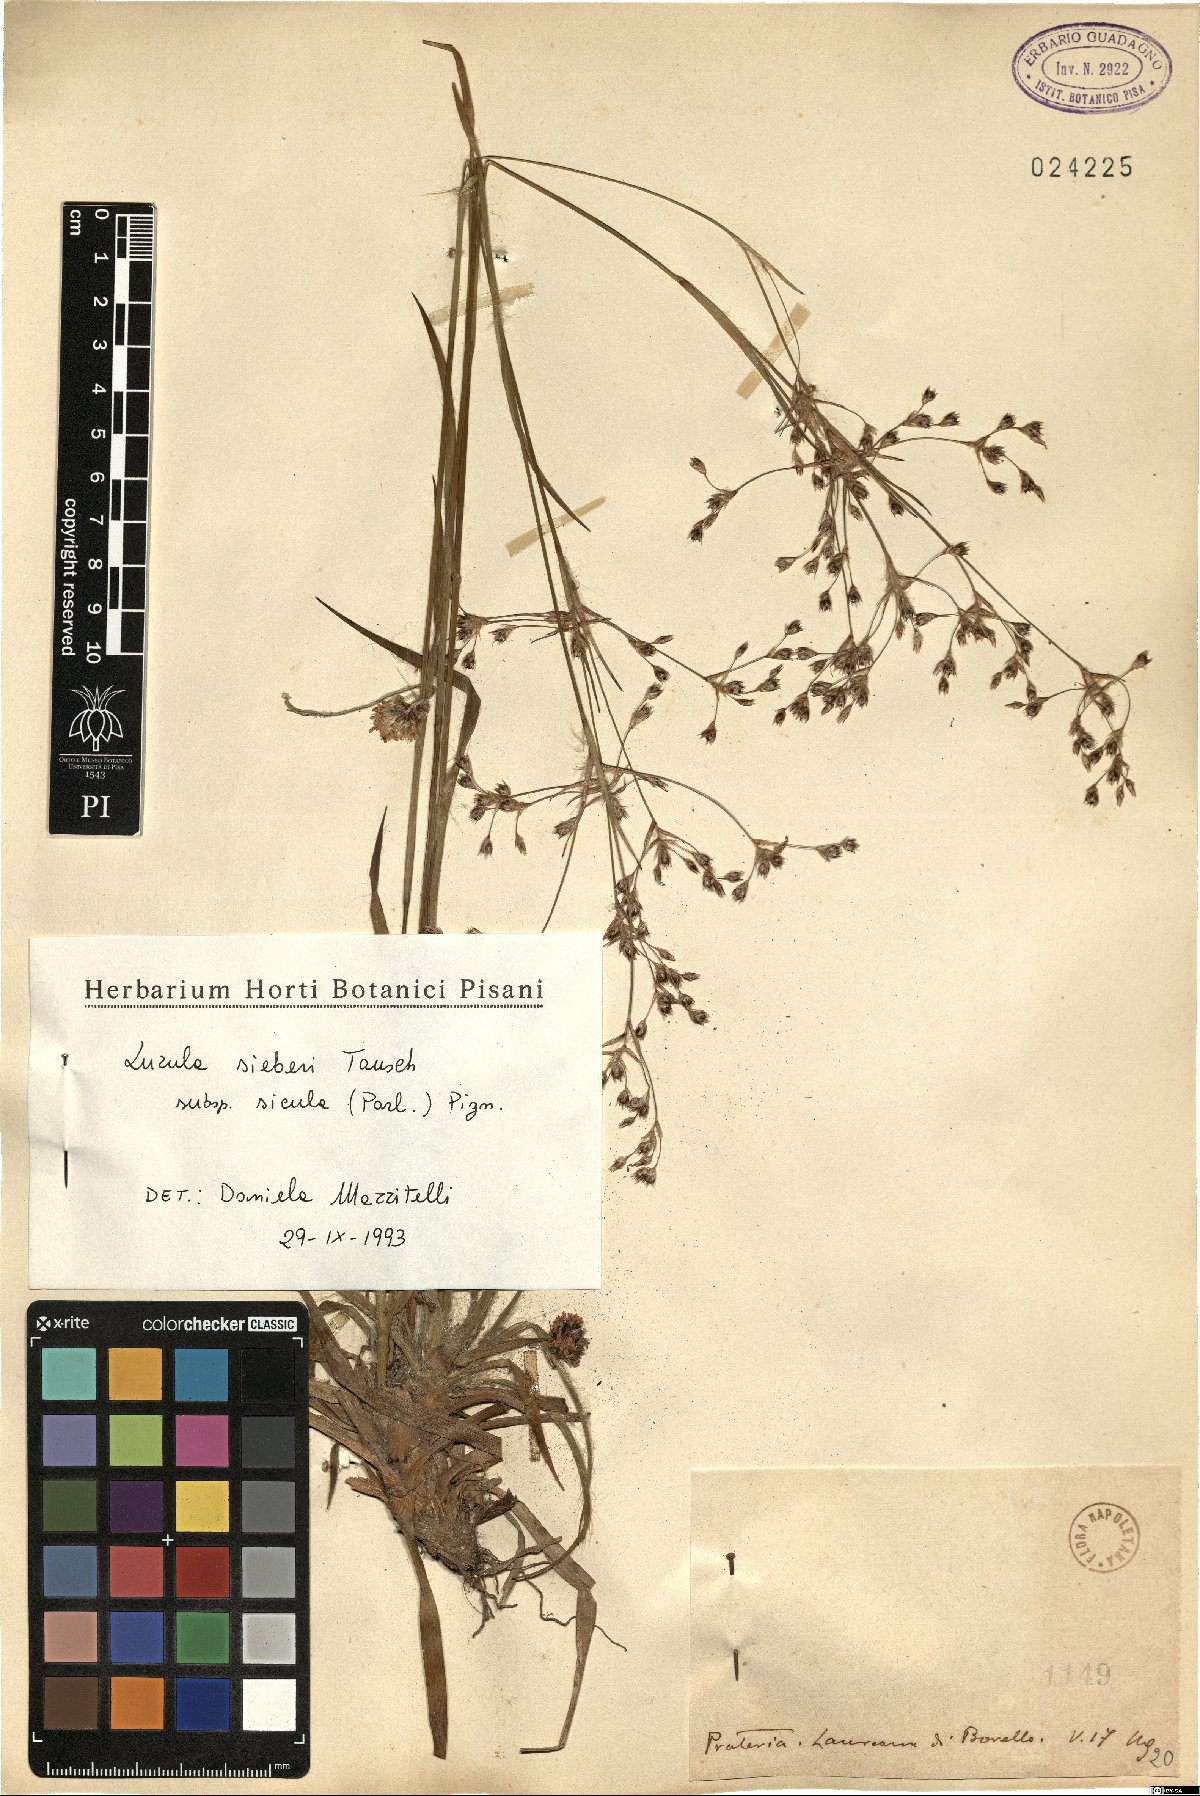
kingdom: Plantae
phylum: Tracheophyta
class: Liliopsida
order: Poales
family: Juncaceae
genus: Luzula
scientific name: Luzula sylvatica
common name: Great wood-rush
